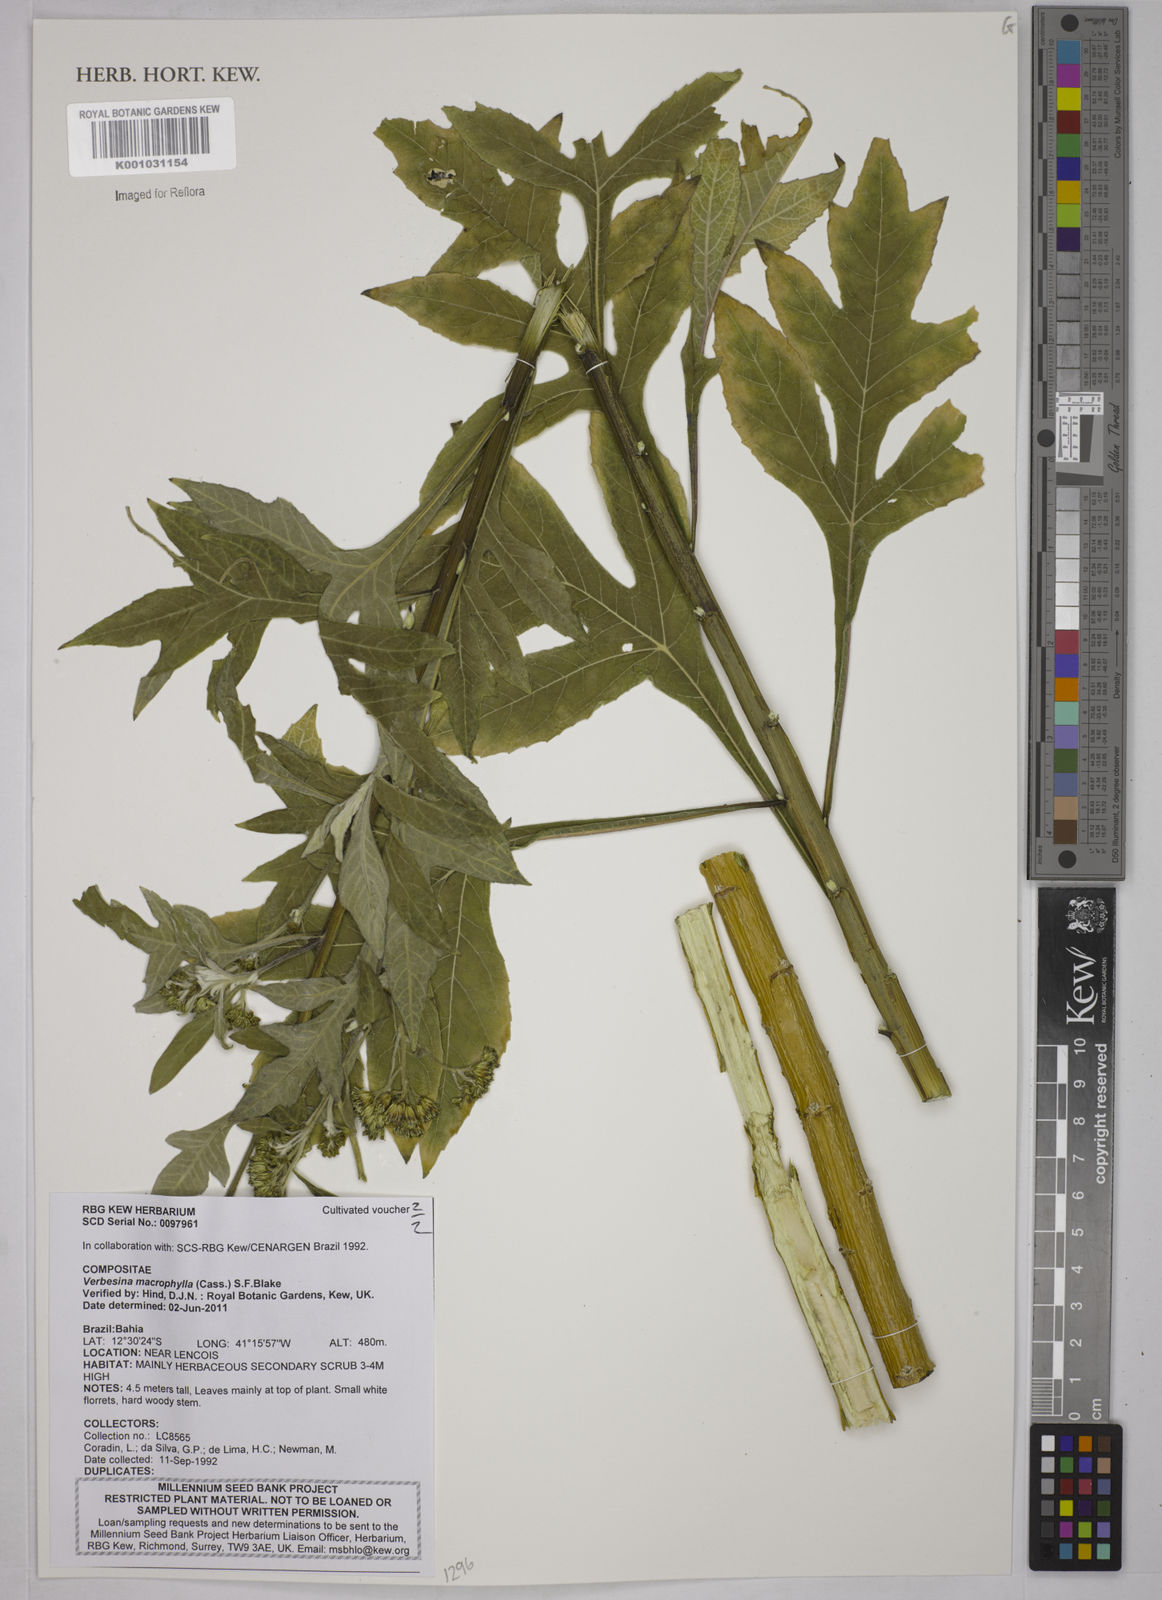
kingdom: Plantae
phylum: Tracheophyta
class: Magnoliopsida
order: Asterales
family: Asteraceae
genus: Verbesina
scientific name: Verbesina macrophylla
